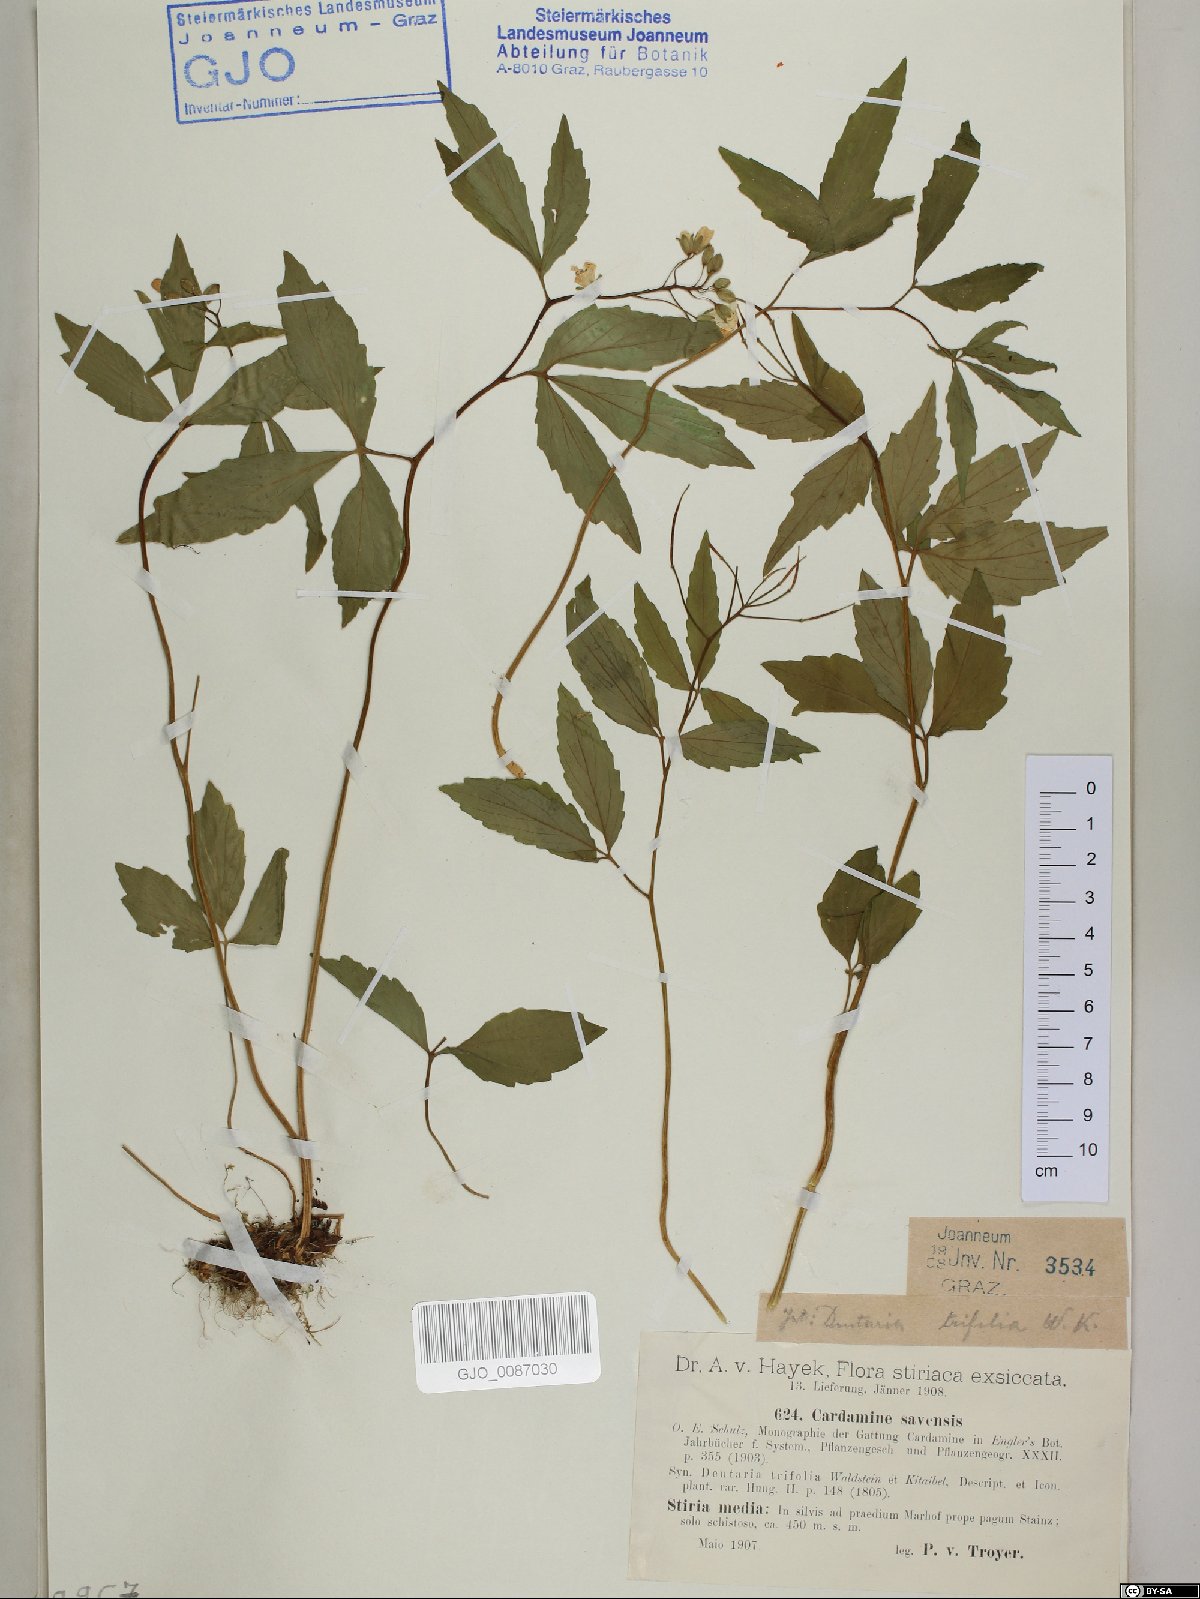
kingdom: Plantae
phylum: Tracheophyta
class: Magnoliopsida
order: Brassicales
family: Brassicaceae
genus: Cardamine
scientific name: Cardamine waldsteinii
